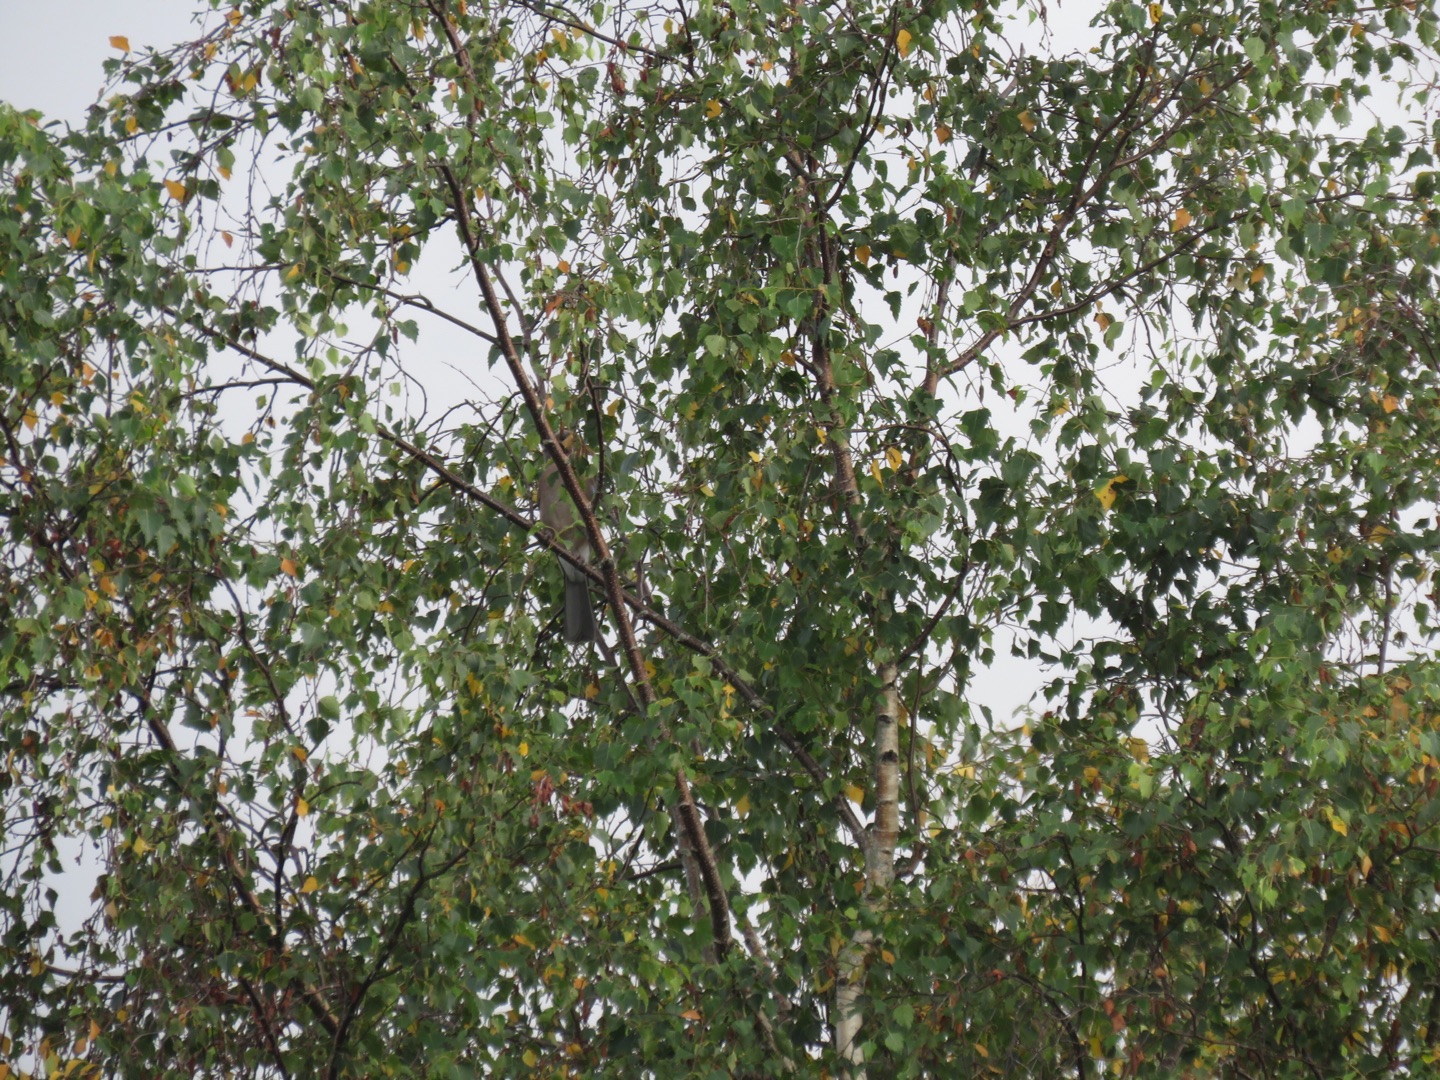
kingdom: Animalia
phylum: Chordata
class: Aves
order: Passeriformes
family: Corvidae
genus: Garrulus
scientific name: Garrulus glandarius
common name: Skovskade
